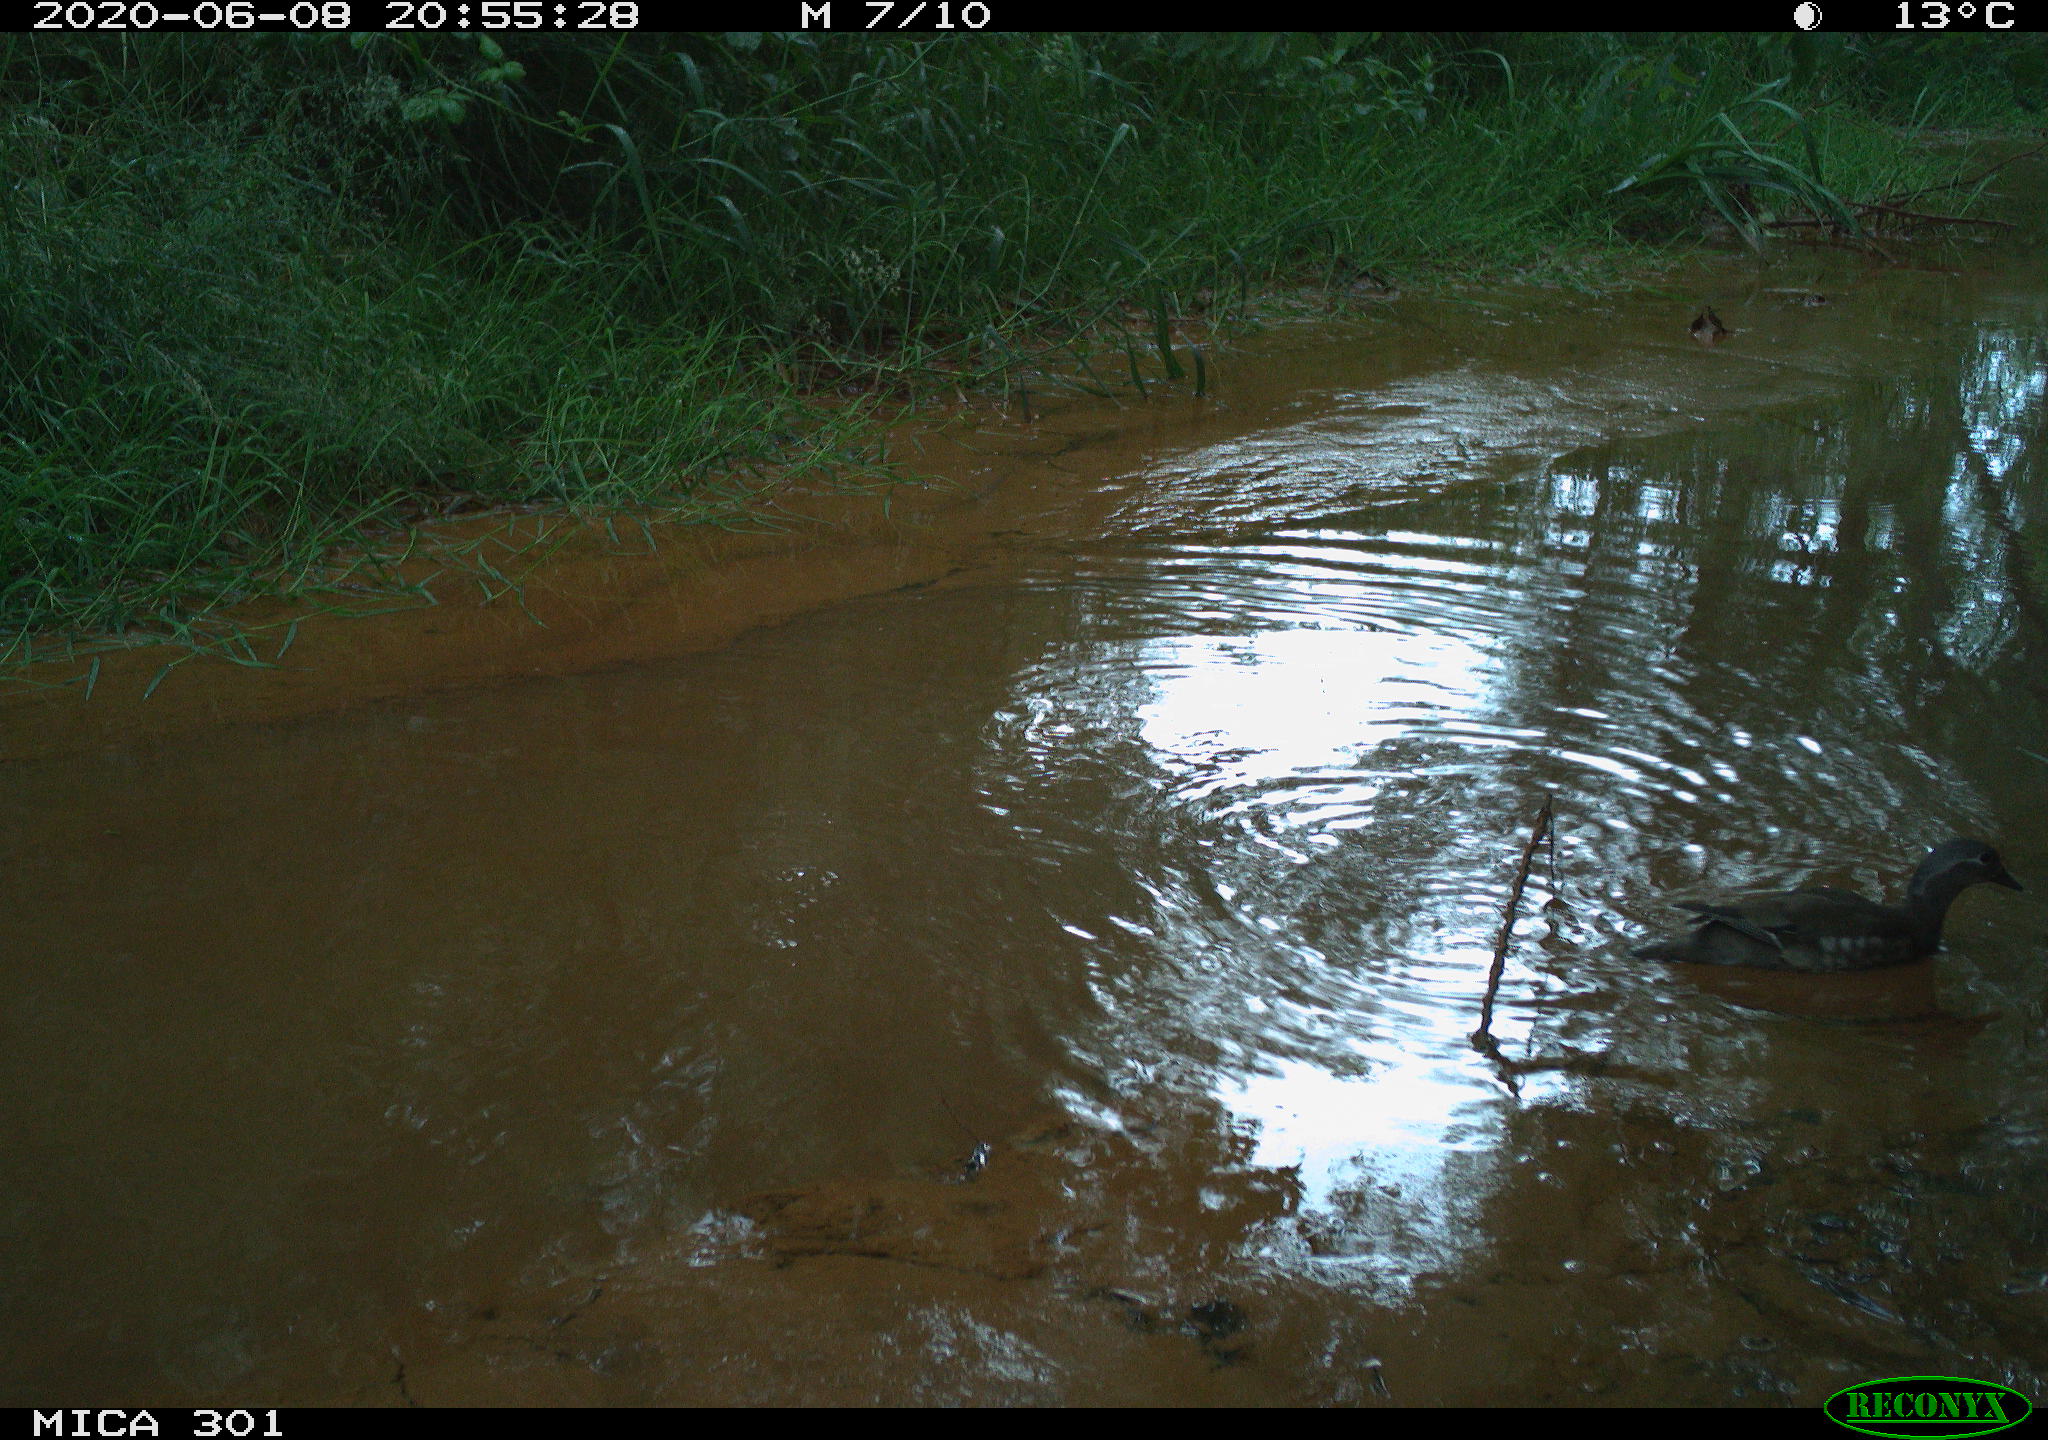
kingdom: Animalia
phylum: Chordata
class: Aves
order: Anseriformes
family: Anatidae
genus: Aix
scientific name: Aix galericulata
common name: Mandarin duck
